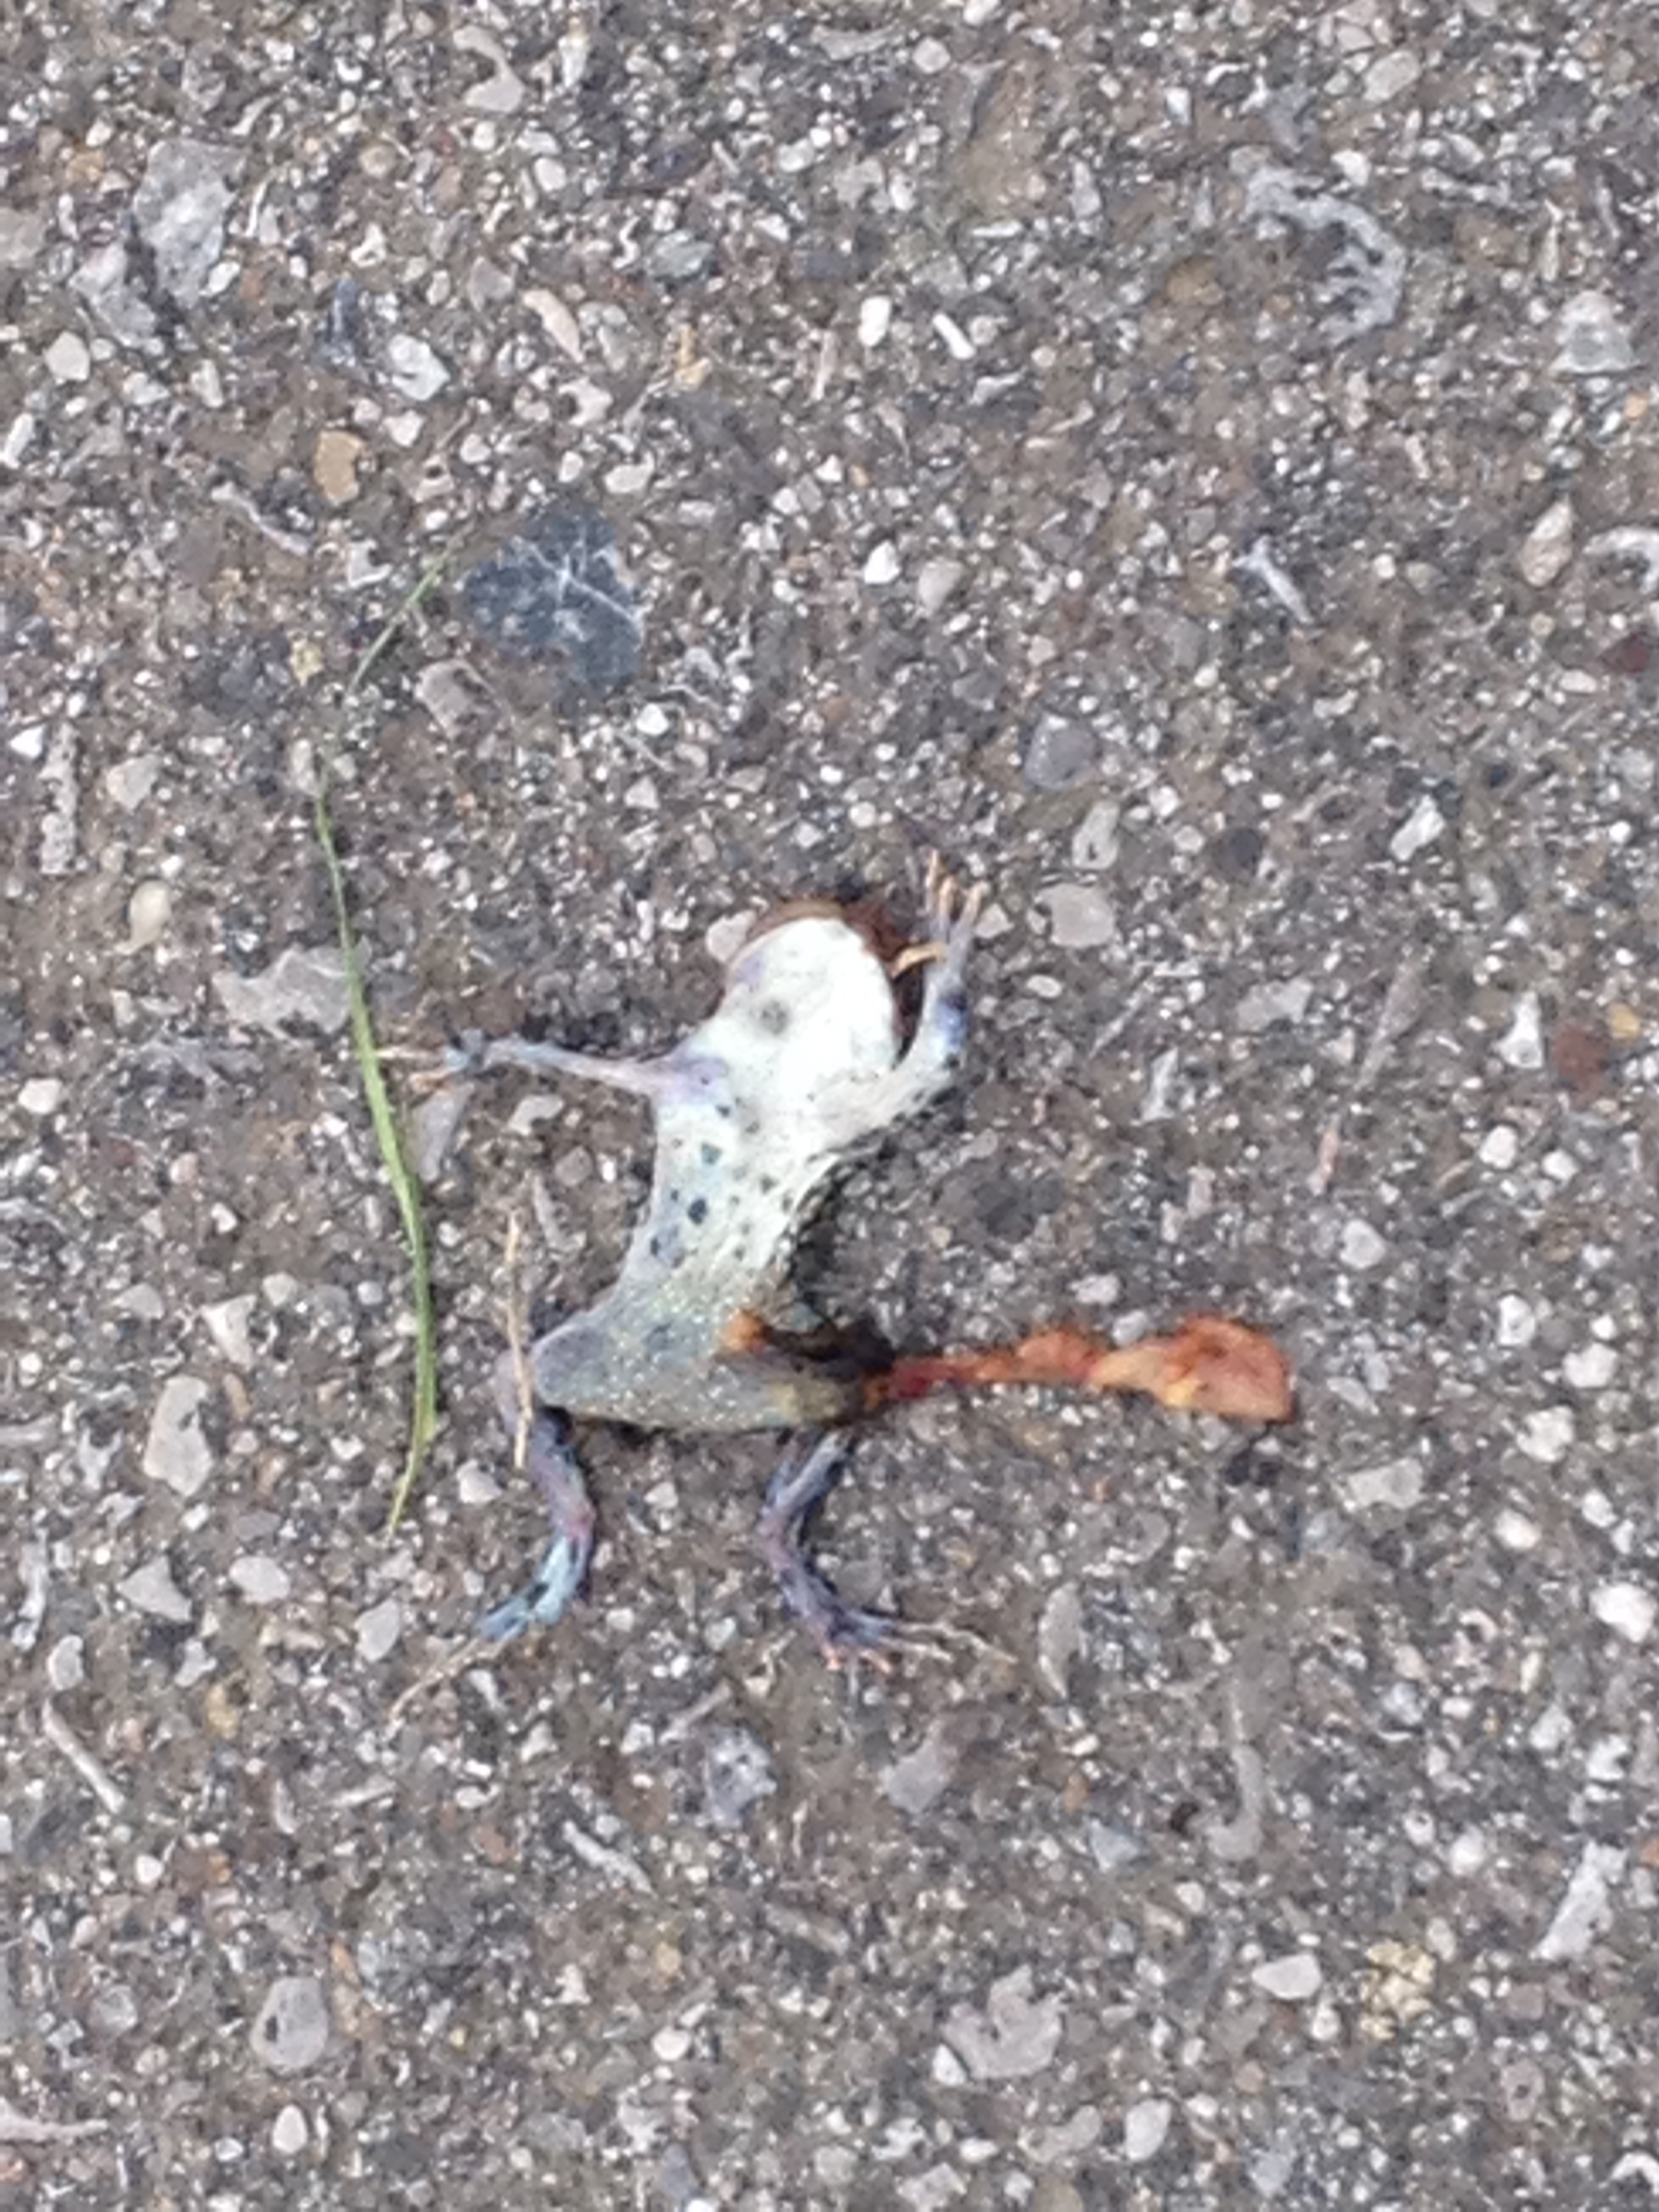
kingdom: Animalia
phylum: Chordata
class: Amphibia
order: Anura
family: Bufonidae
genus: Bufotes
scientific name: Bufotes viridis
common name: European green toad
